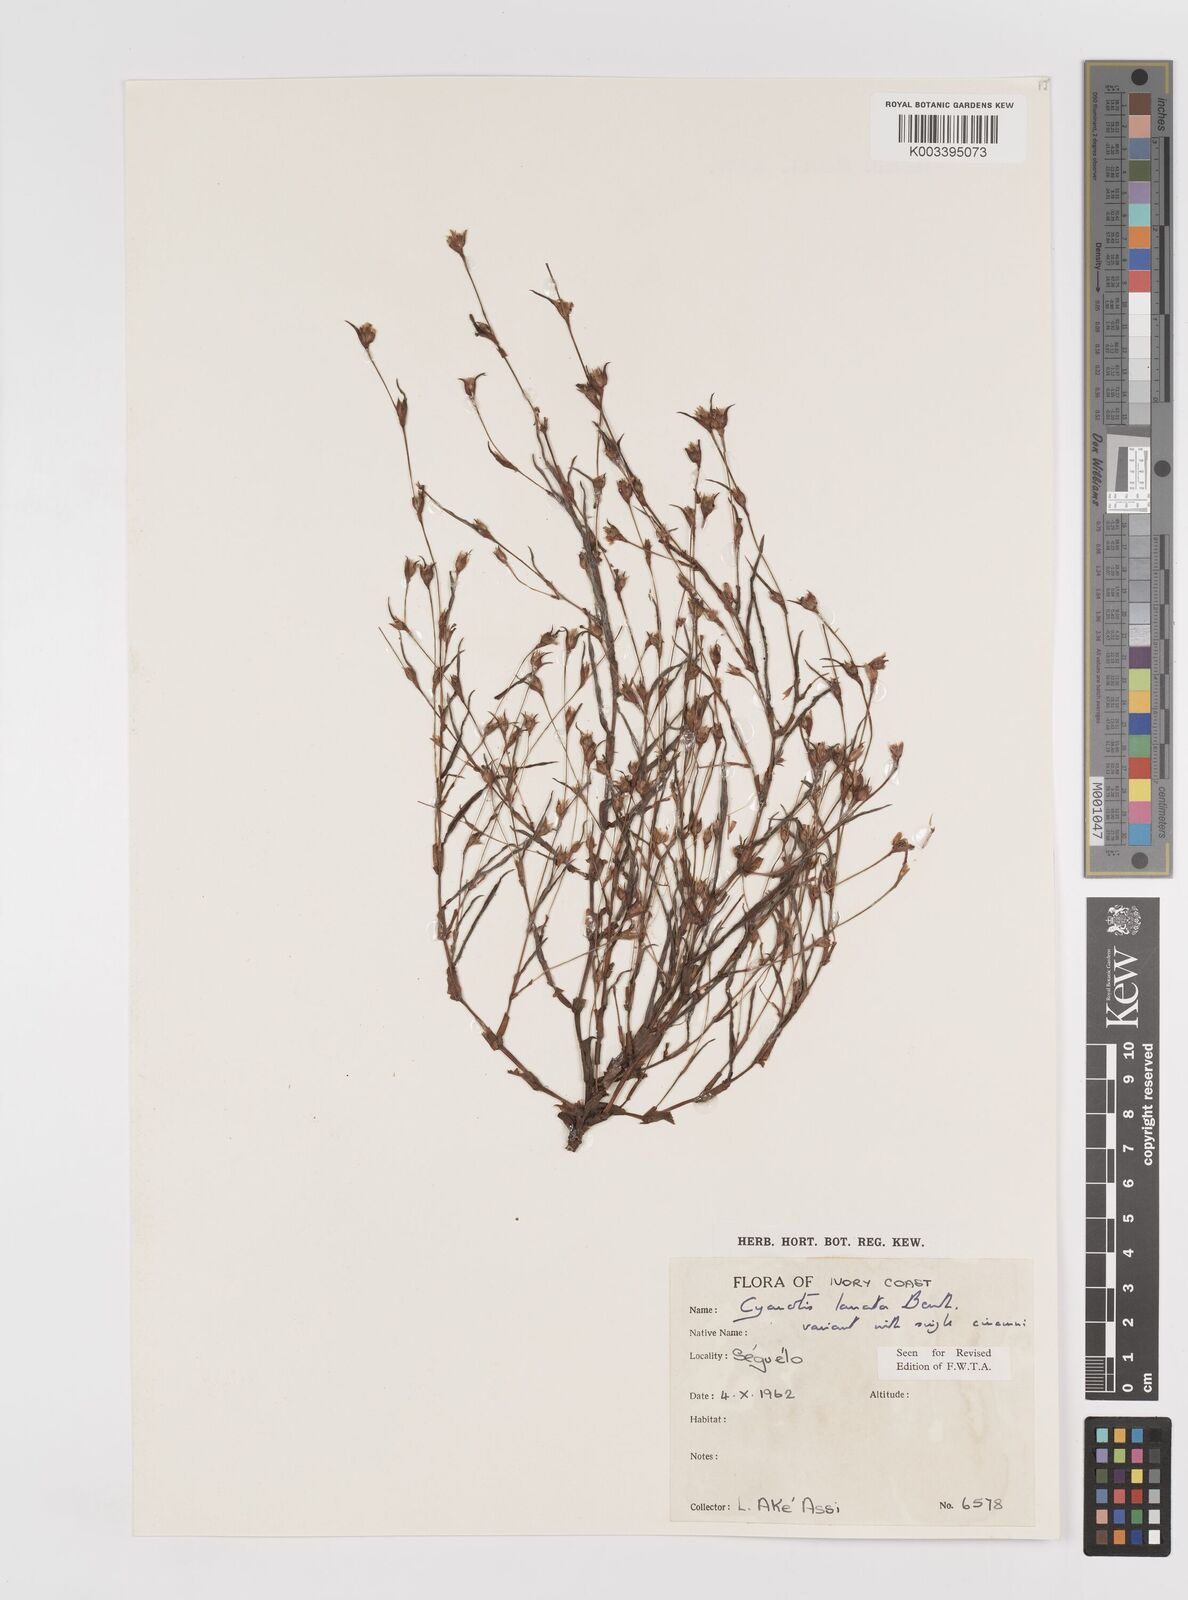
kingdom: Plantae
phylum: Tracheophyta
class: Liliopsida
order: Commelinales
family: Commelinaceae
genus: Cyanotis
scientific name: Cyanotis lanata
